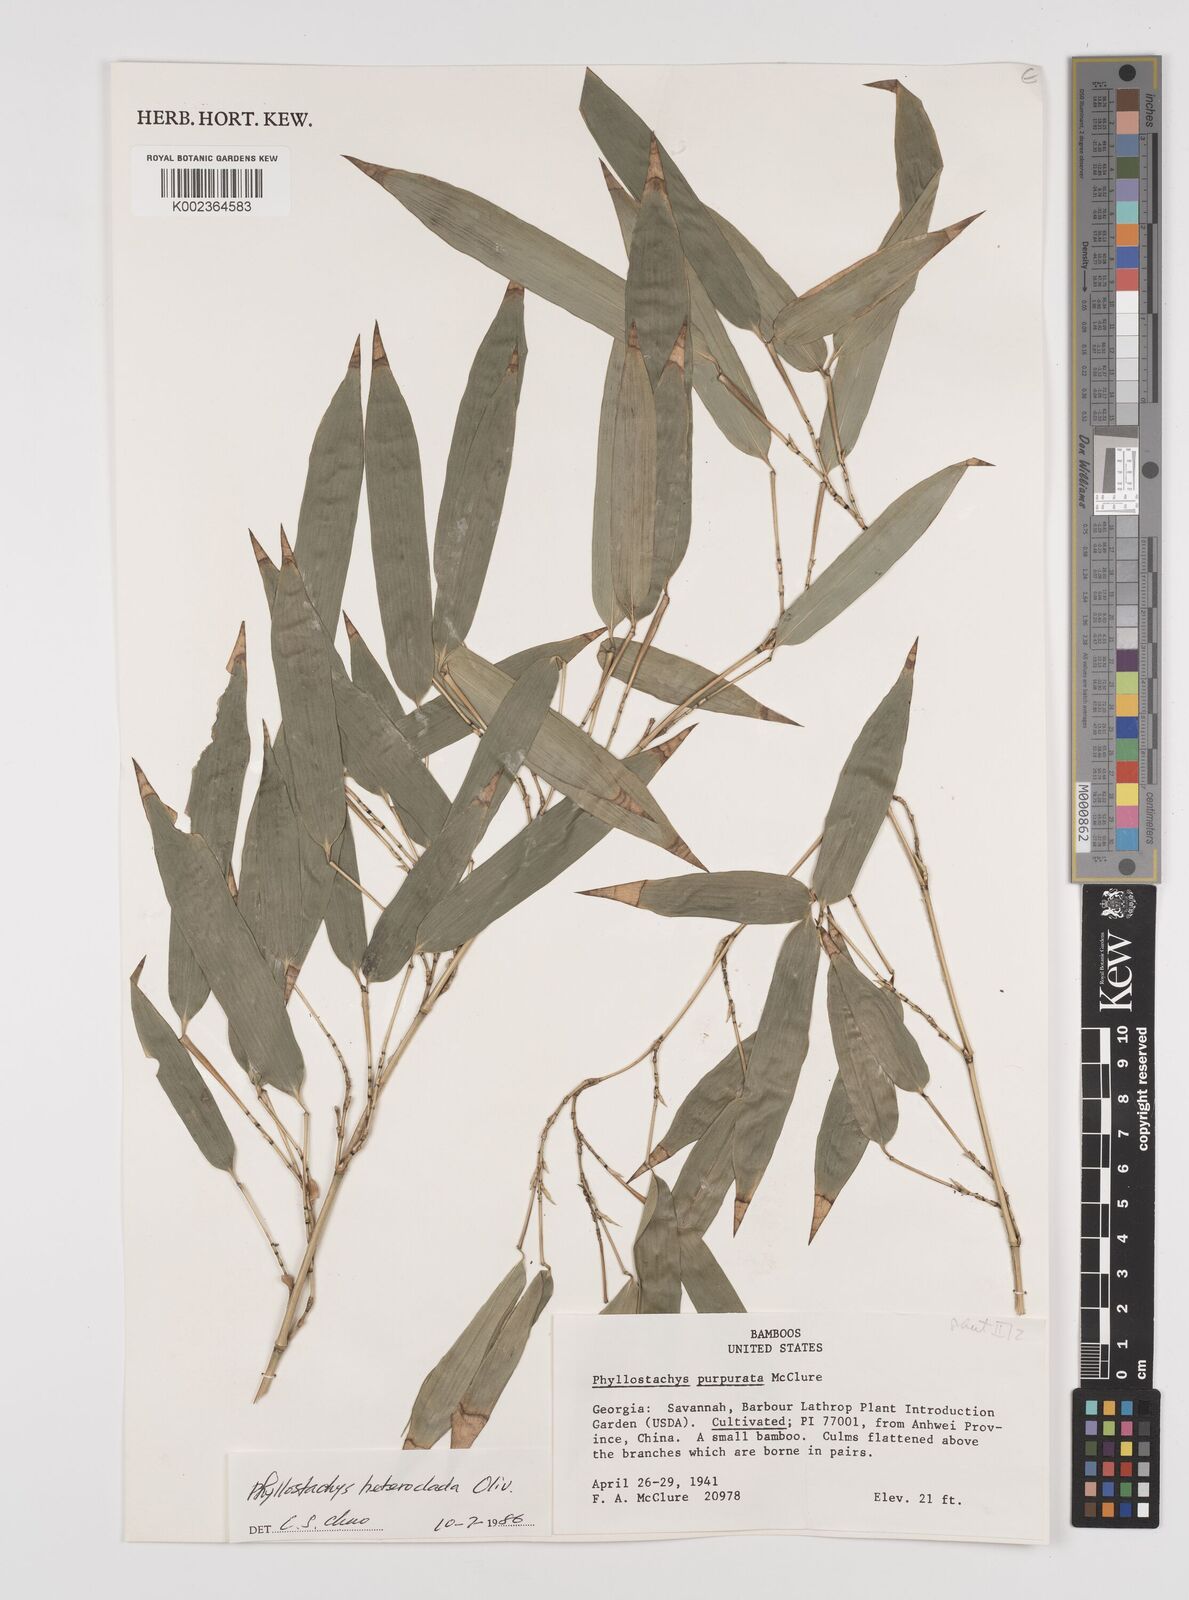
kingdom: Plantae
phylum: Tracheophyta
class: Liliopsida
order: Poales
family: Poaceae
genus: Phyllostachys
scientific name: Phyllostachys heteroclada
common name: Fishscale bamboo
